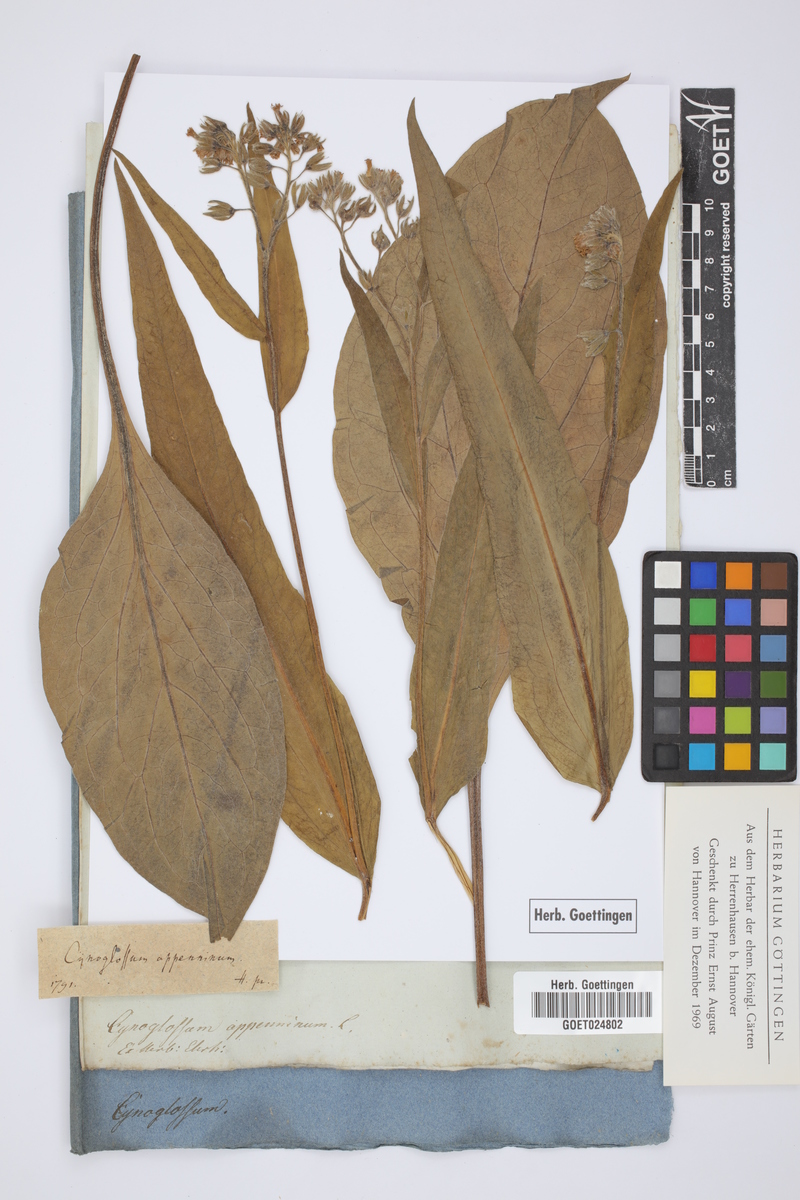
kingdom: Plantae
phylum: Tracheophyta
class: Magnoliopsida
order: Boraginales
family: Boraginaceae
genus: Solenanthus
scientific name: Solenanthus apenninus
